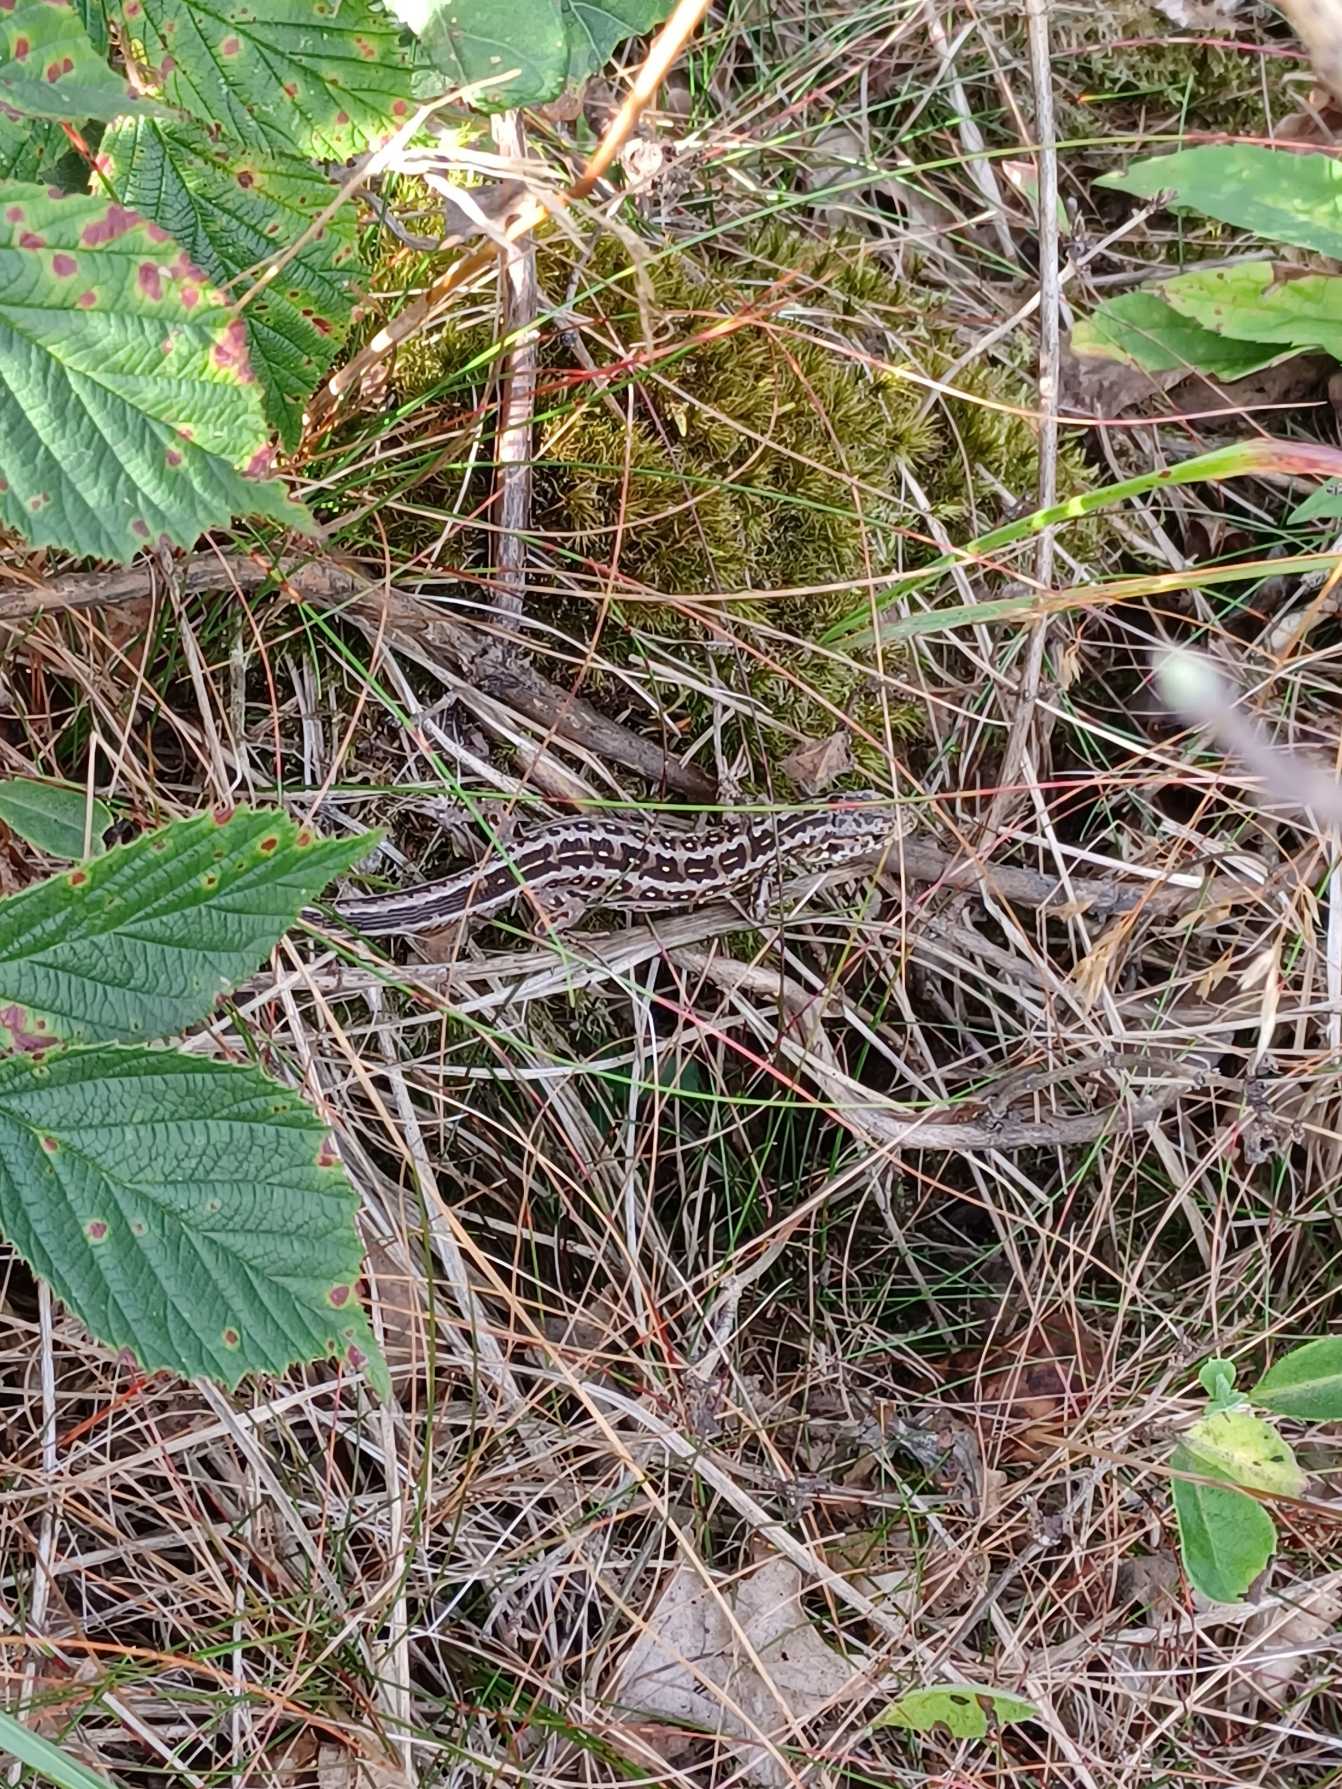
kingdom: Animalia
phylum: Chordata
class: Squamata
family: Lacertidae
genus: Lacerta
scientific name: Lacerta agilis
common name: Markfirben
